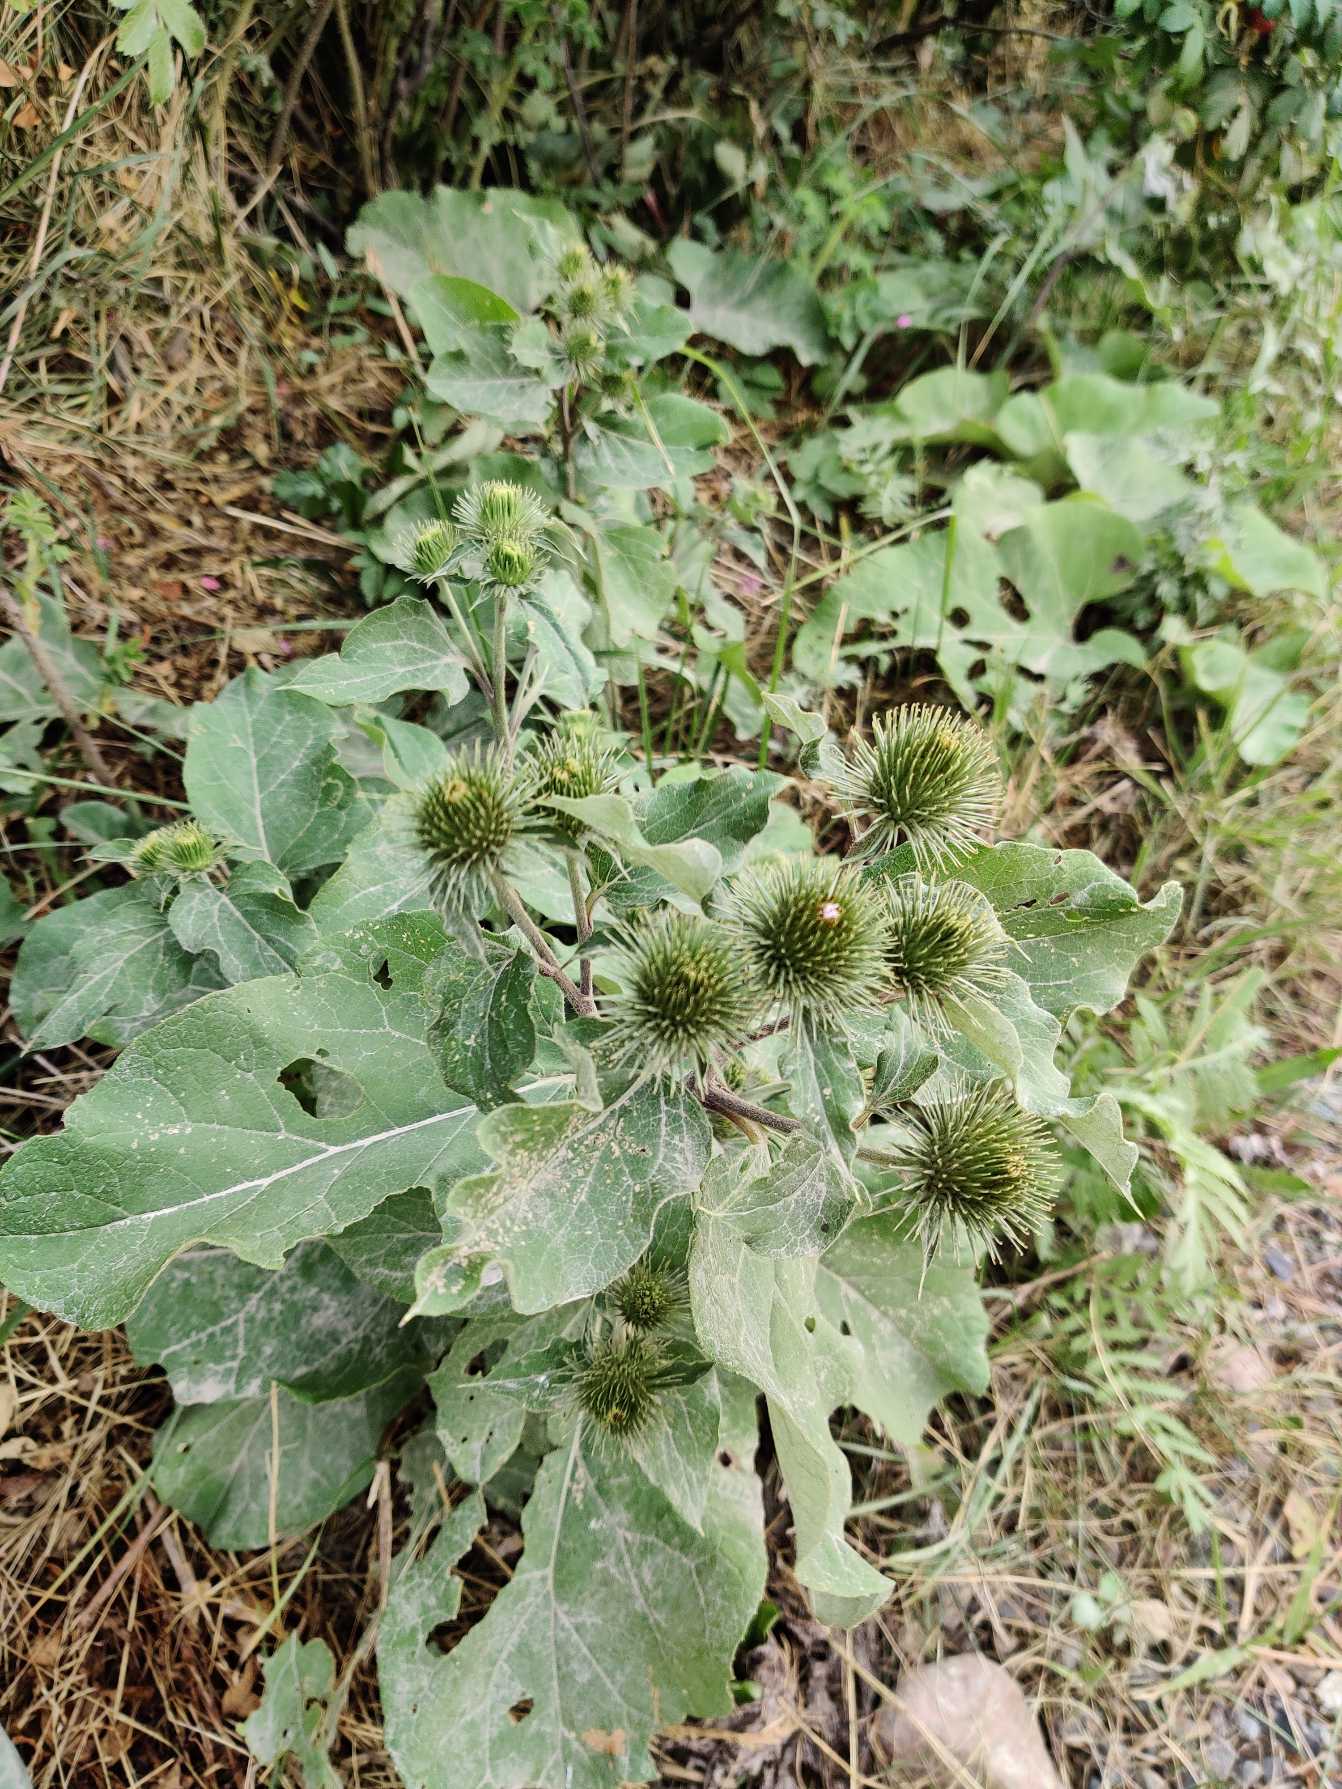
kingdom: Plantae
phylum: Tracheophyta
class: Magnoliopsida
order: Asterales
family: Asteraceae
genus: Arctium
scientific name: Arctium lappa
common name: Glat burre
